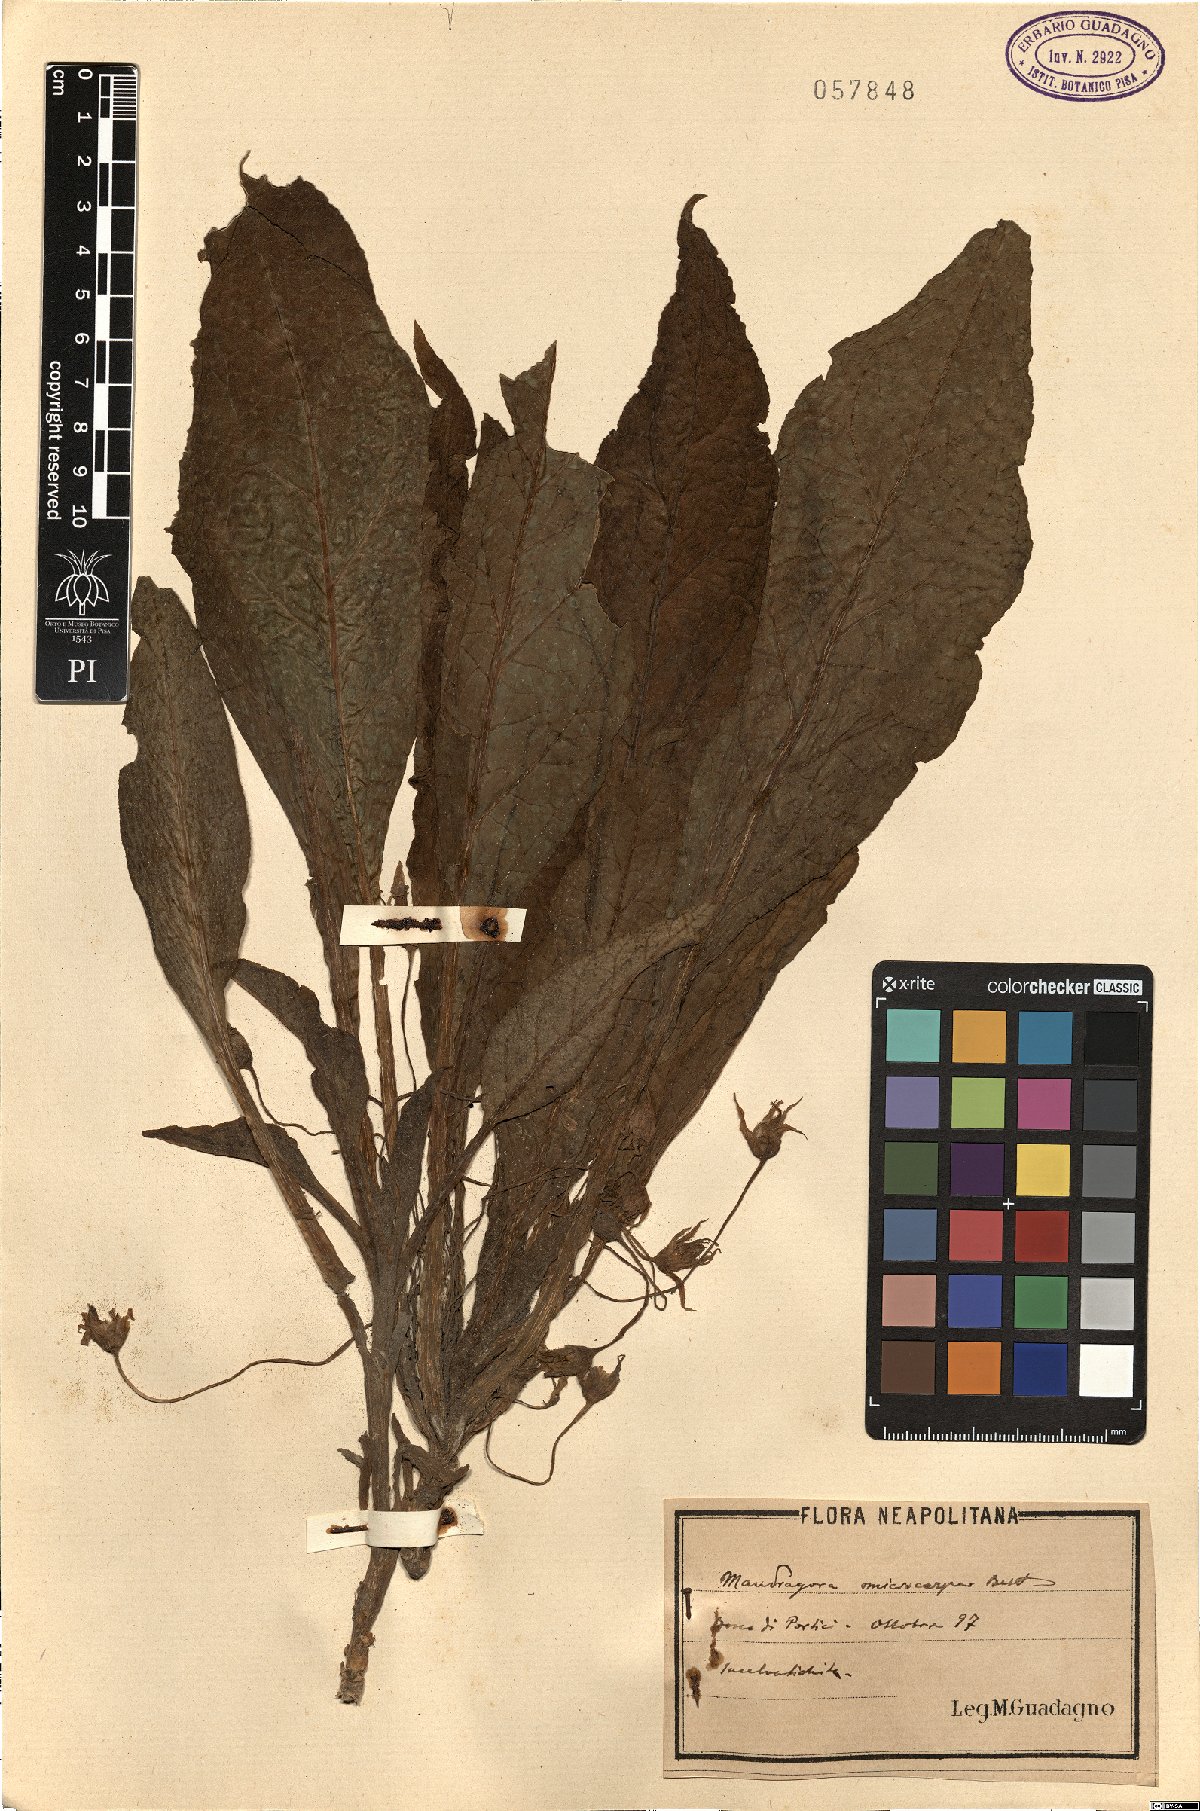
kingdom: Plantae
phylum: Tracheophyta
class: Magnoliopsida
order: Solanales
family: Solanaceae
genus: Mandragora
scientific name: Mandragora officinarum
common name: Mandrake
